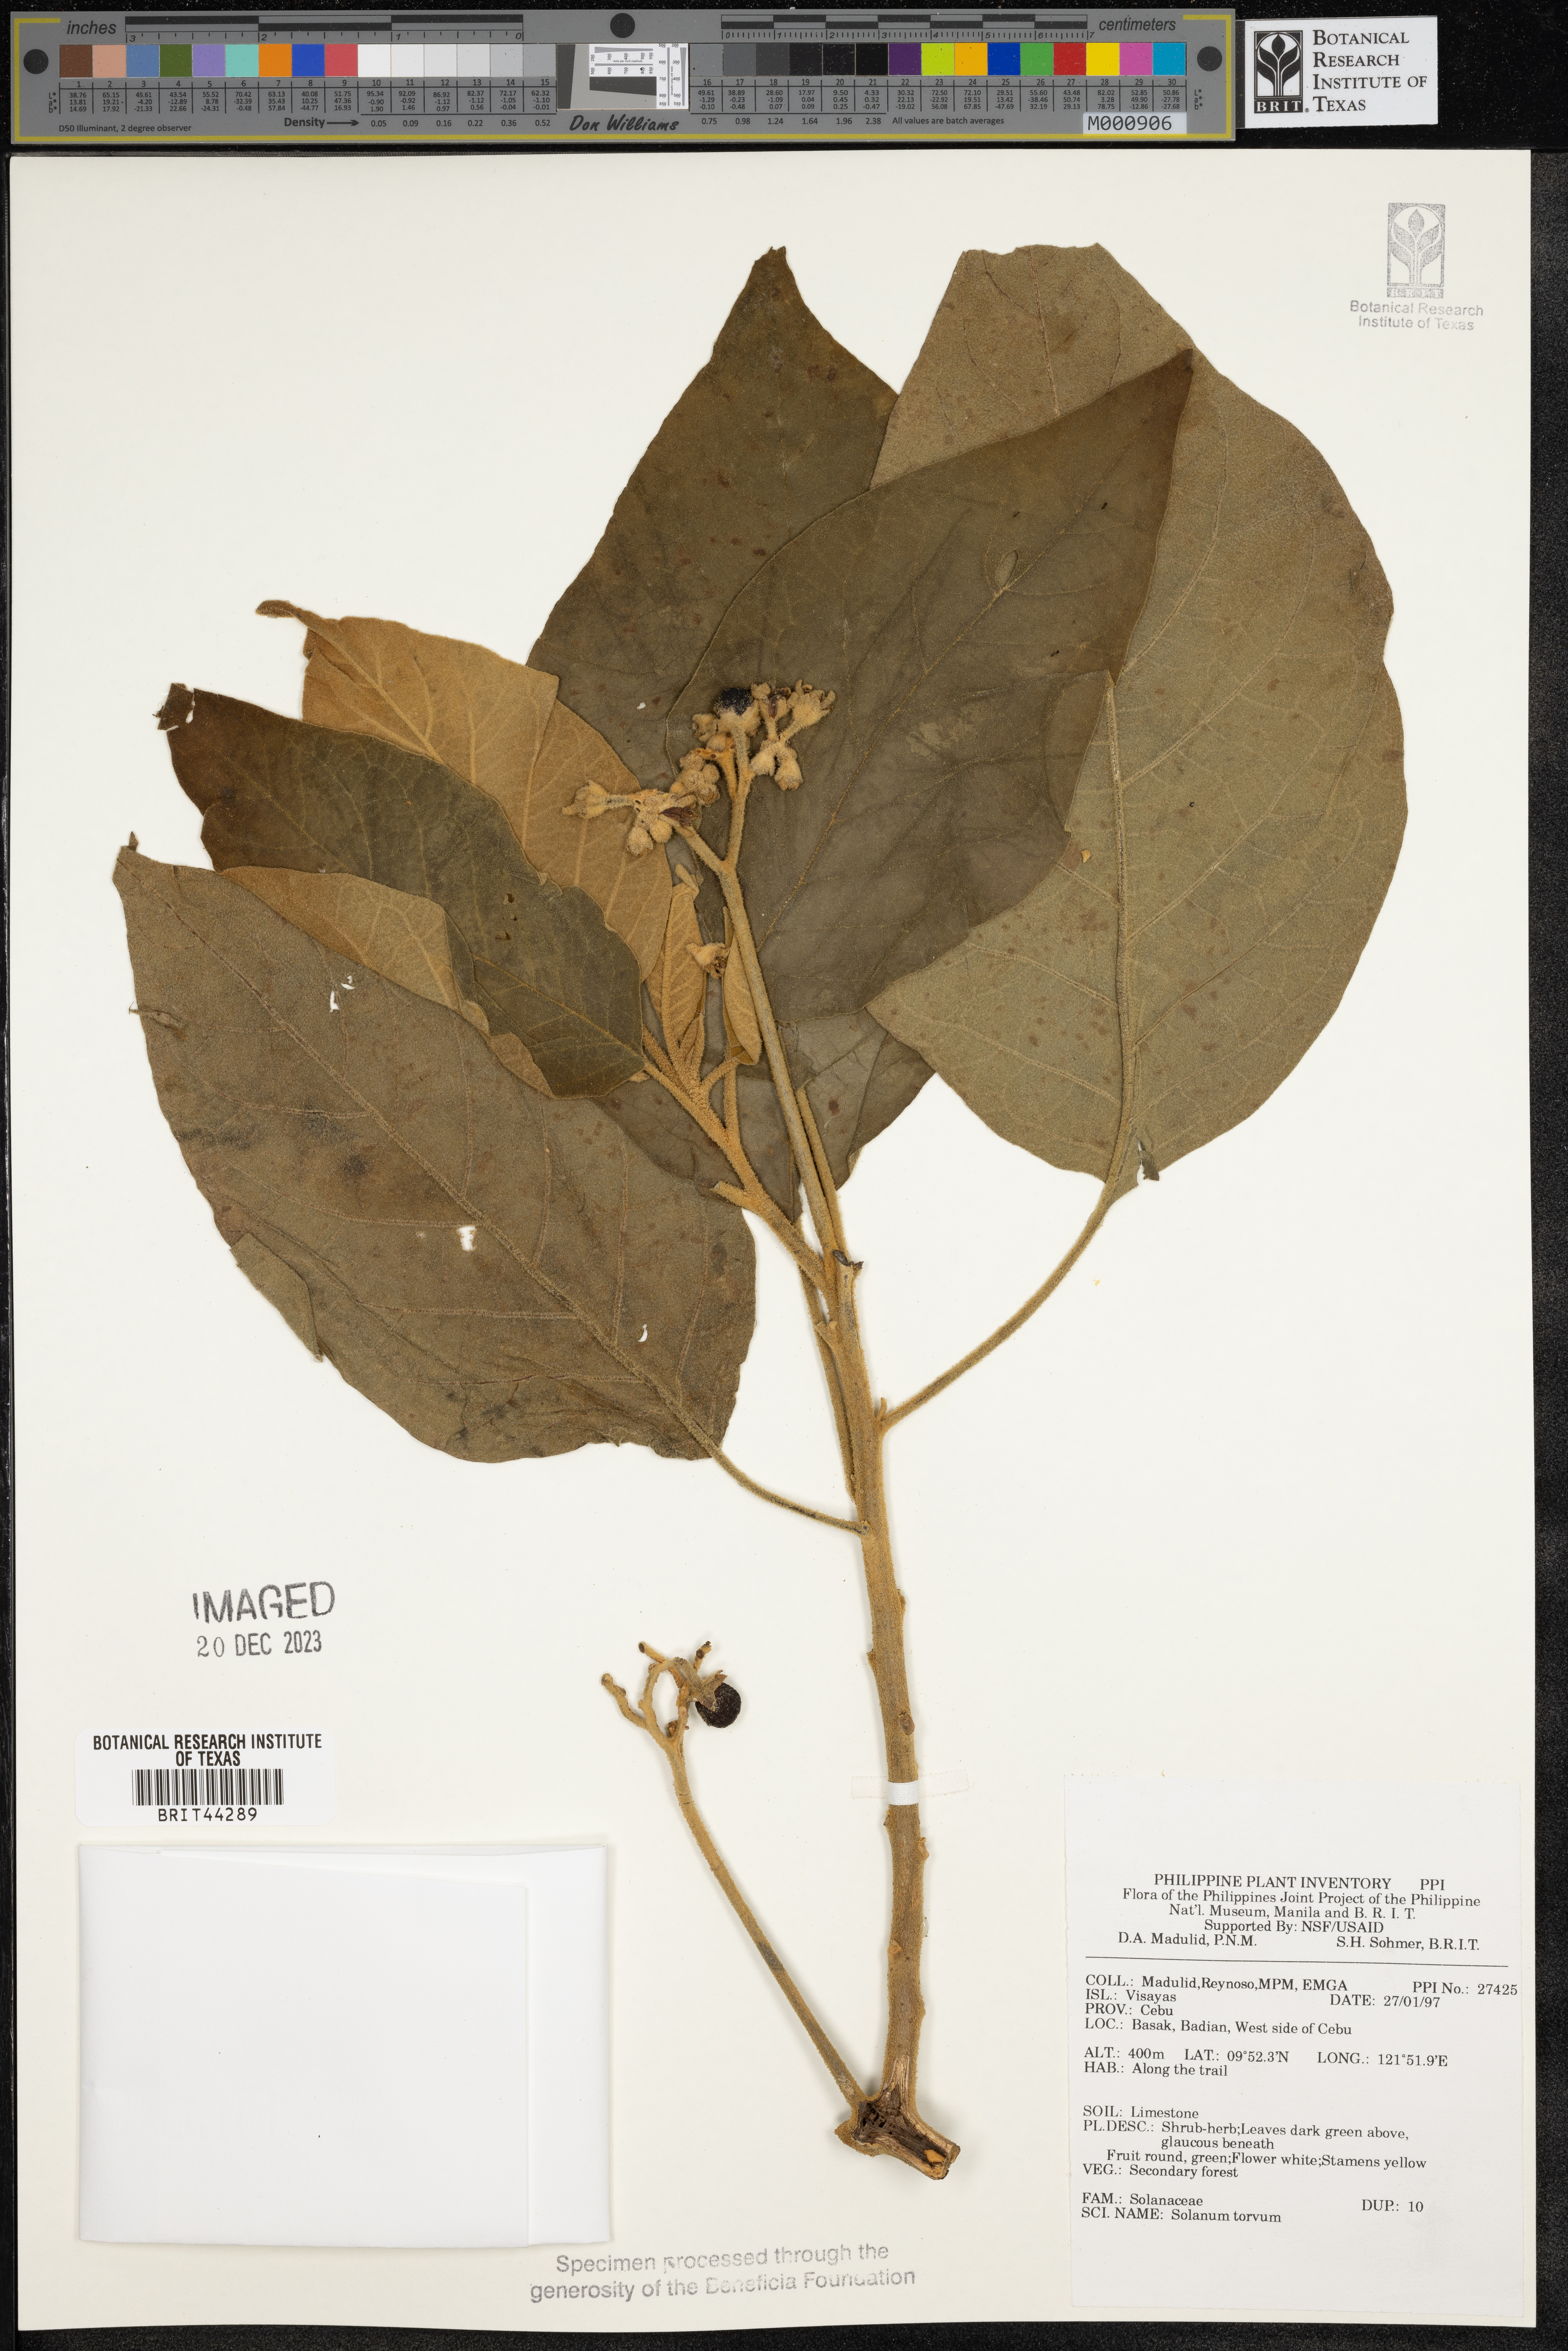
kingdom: Plantae
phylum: Tracheophyta
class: Magnoliopsida
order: Solanales
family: Solanaceae
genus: Solanum
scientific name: Solanum torvum
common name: Turkey berry
